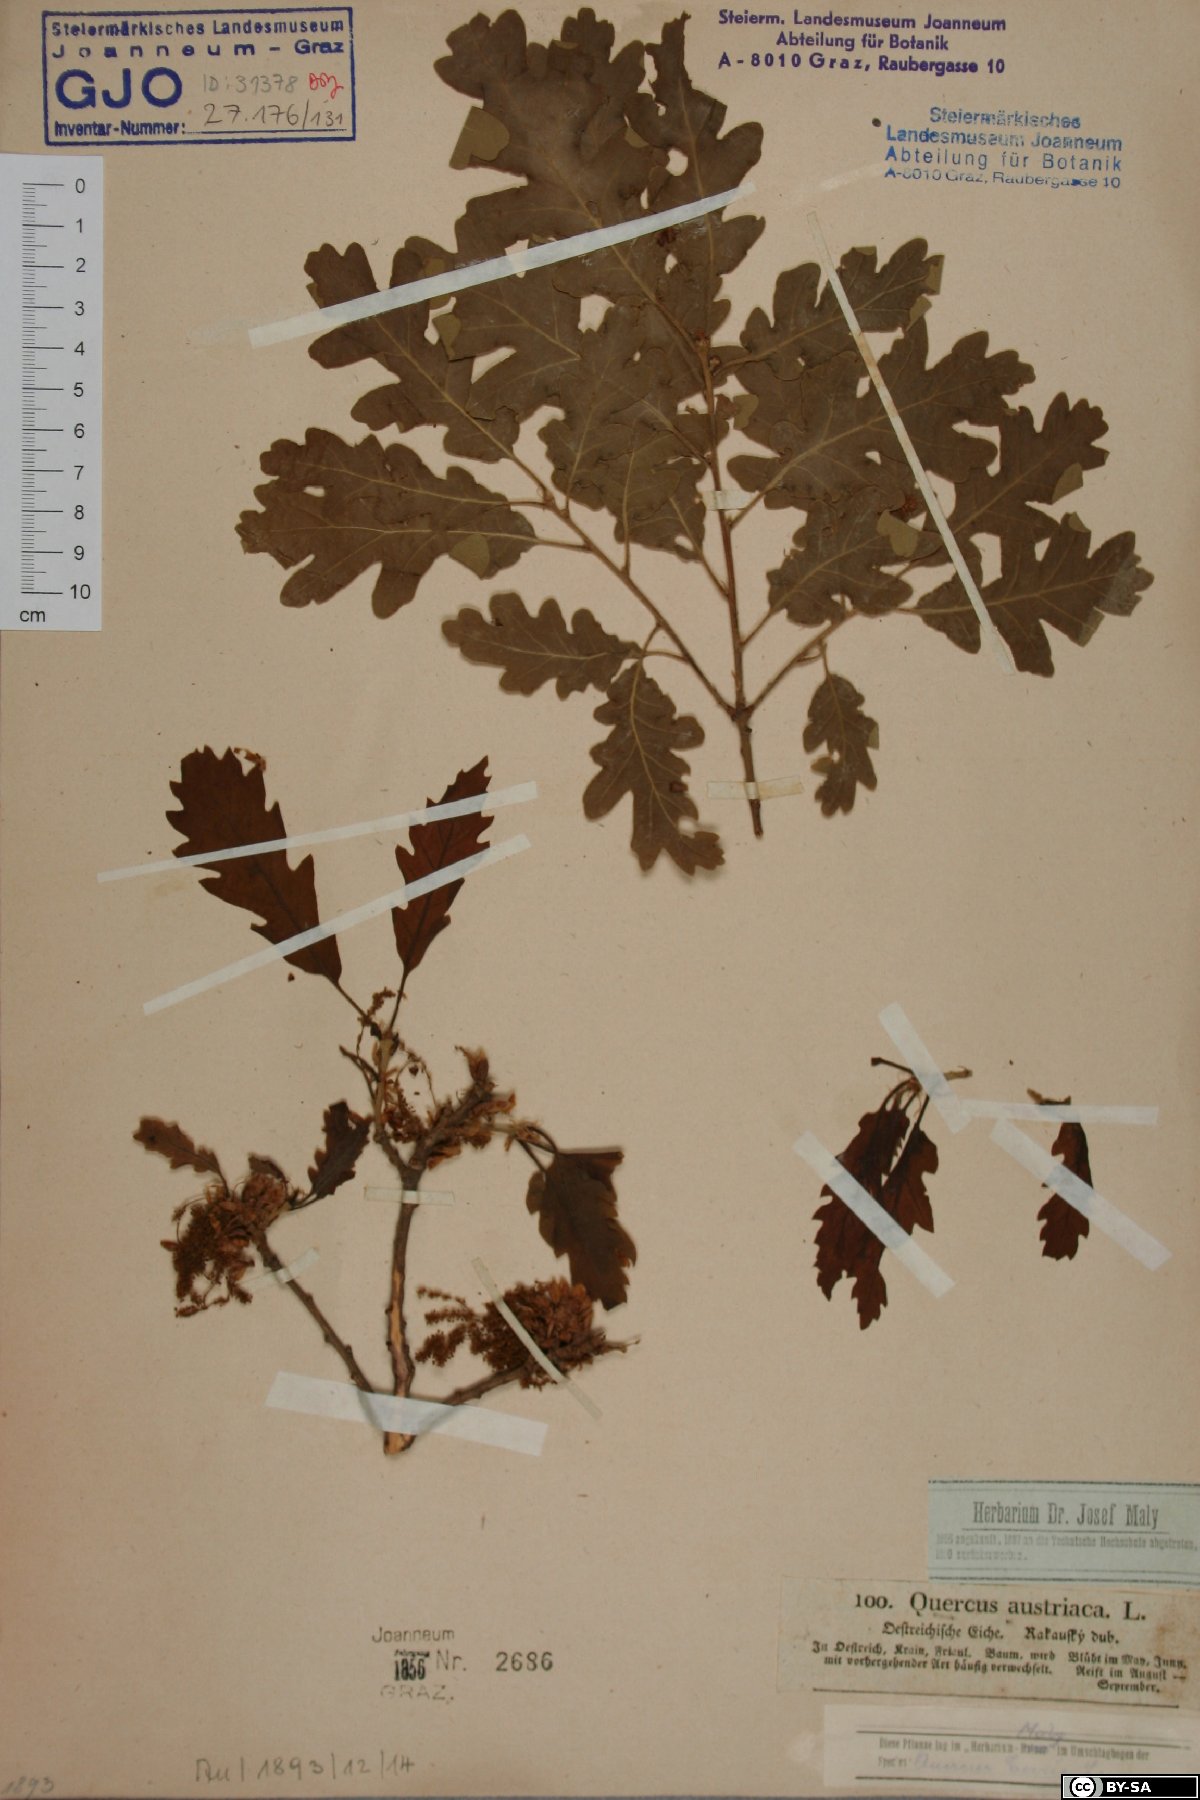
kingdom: Plantae
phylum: Tracheophyta
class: Magnoliopsida
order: Fagales
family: Fagaceae
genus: Quercus
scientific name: Quercus cerris
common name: Turkey oak
